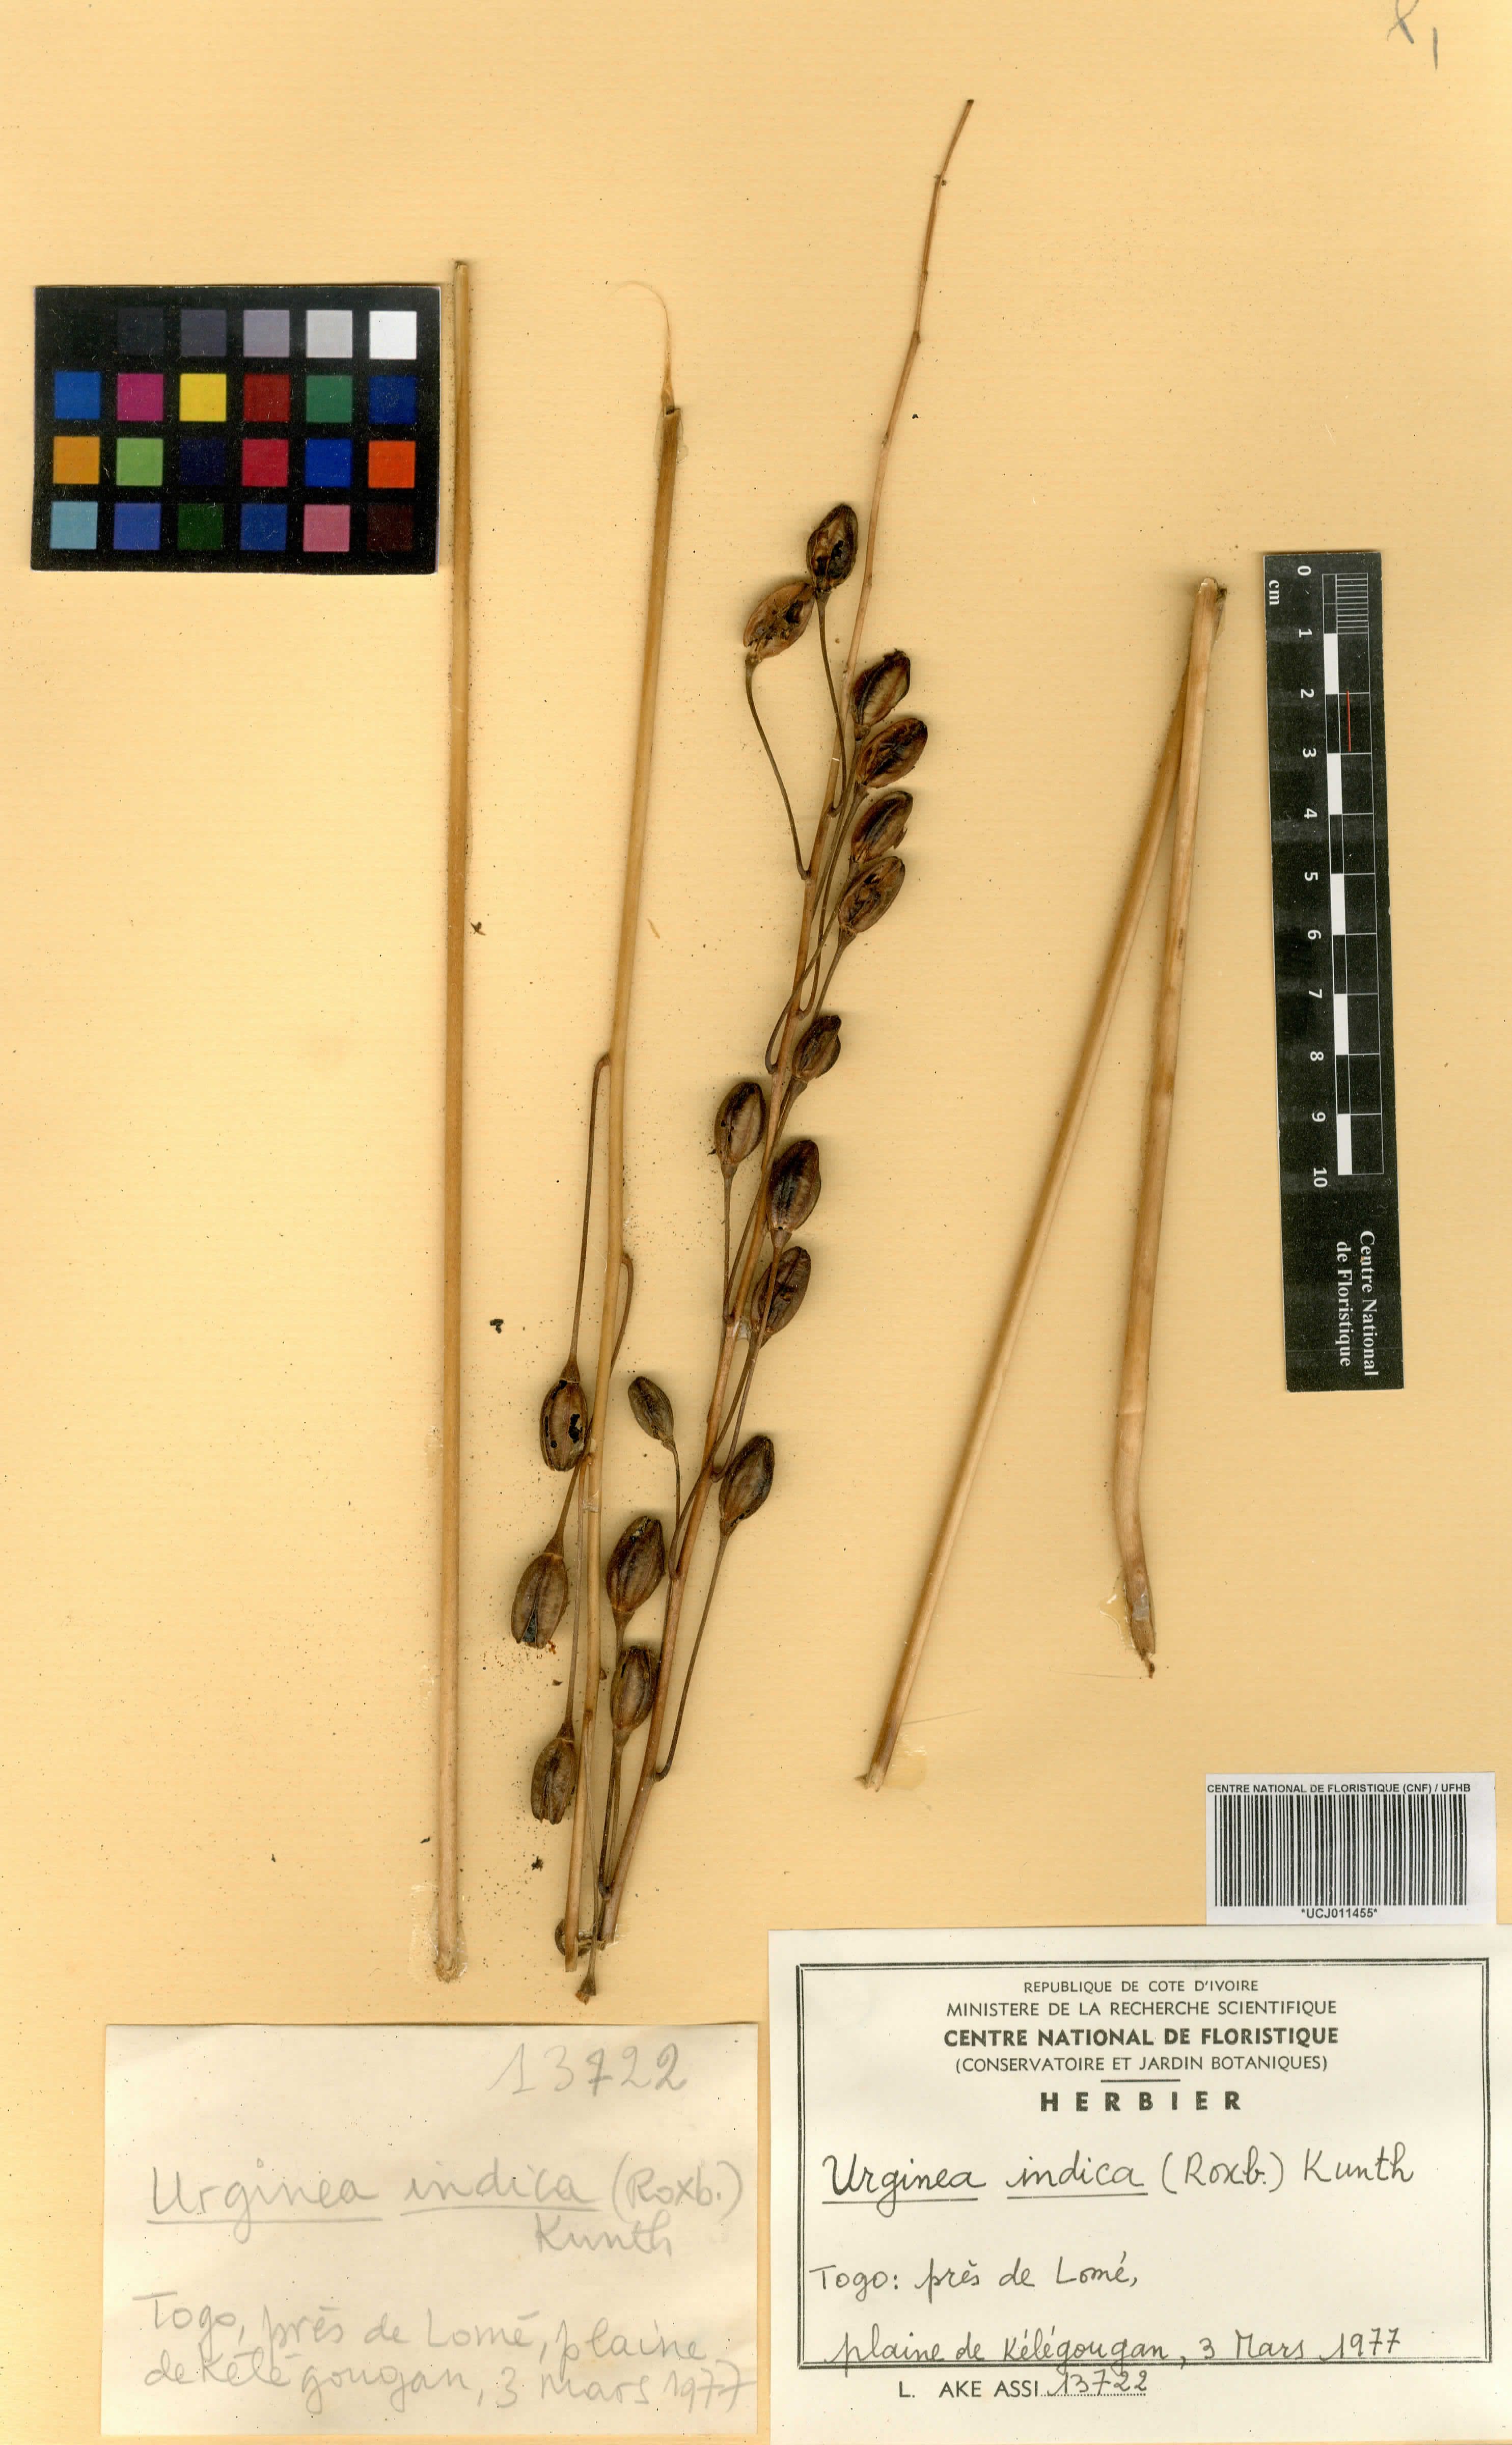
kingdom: Plantae
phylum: Tracheophyta
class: Liliopsida
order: Asparagales
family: Asparagaceae
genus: Drimia
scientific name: Drimia indica
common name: Indian-squill
